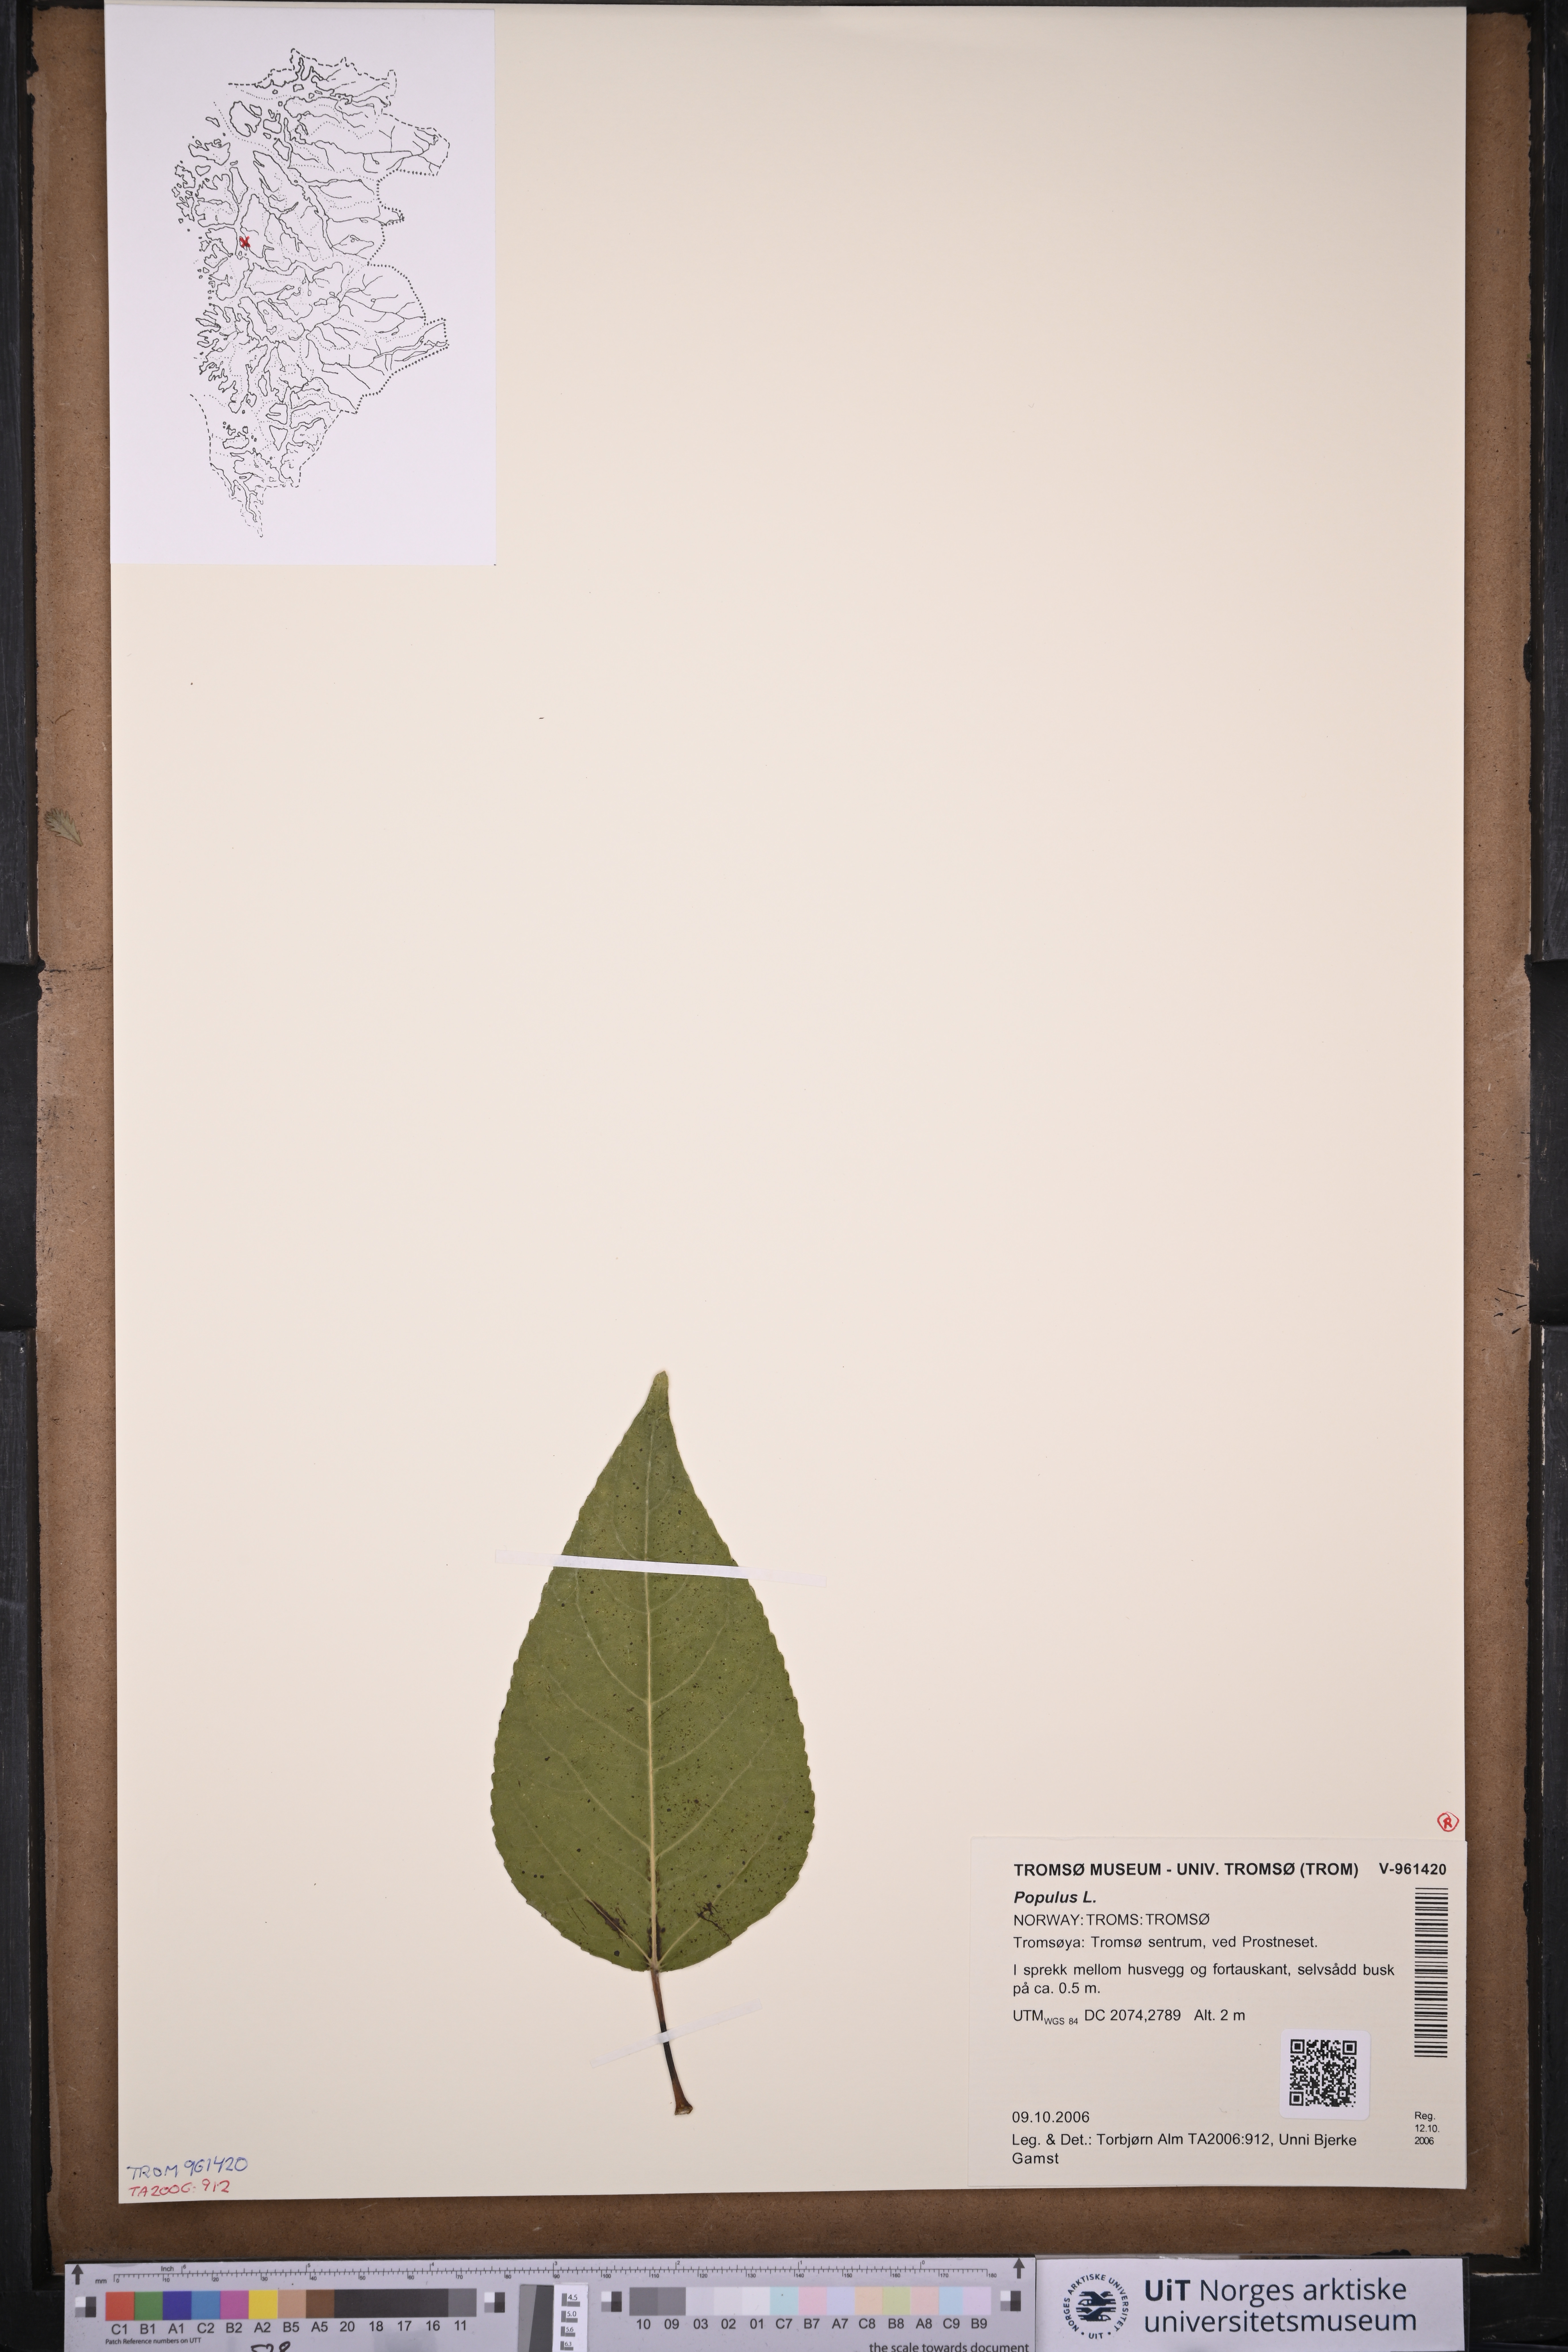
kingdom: Plantae
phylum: Tracheophyta
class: Magnoliopsida
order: Malpighiales
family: Salicaceae
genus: Populus
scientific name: Populus
